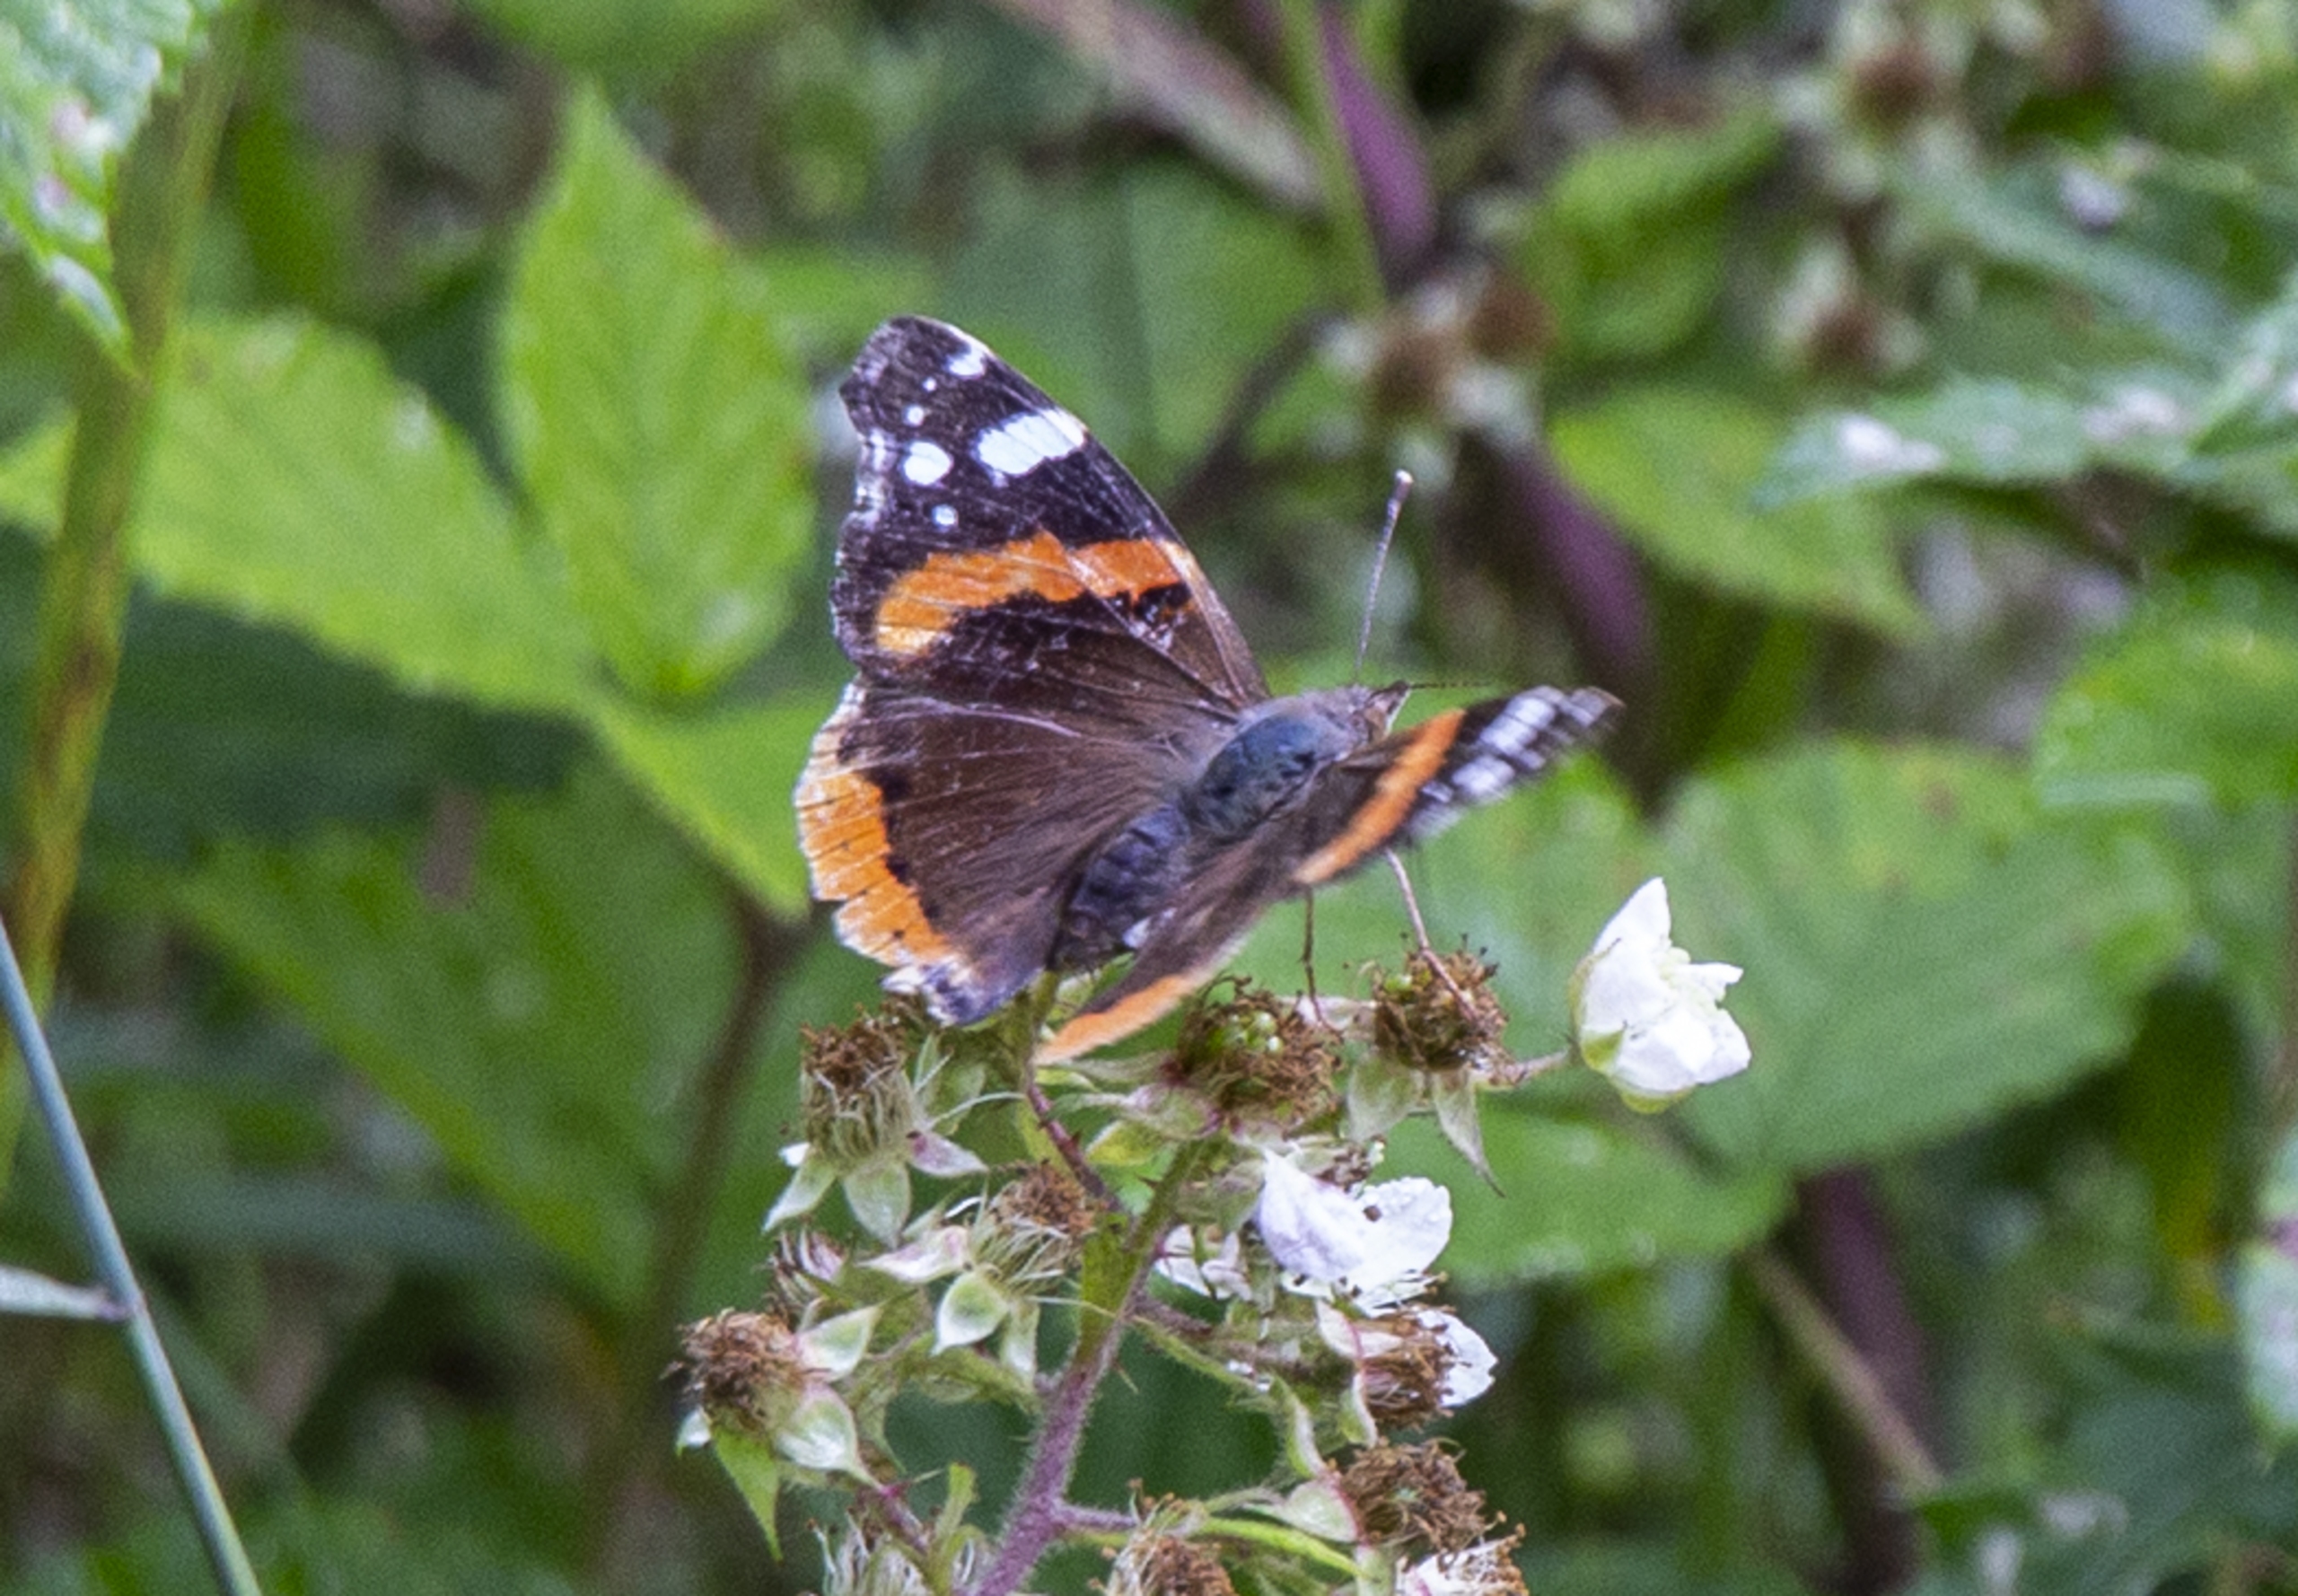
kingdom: Animalia
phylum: Arthropoda
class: Insecta
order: Lepidoptera
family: Nymphalidae
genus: Vanessa
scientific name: Vanessa atalanta
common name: Admiral
